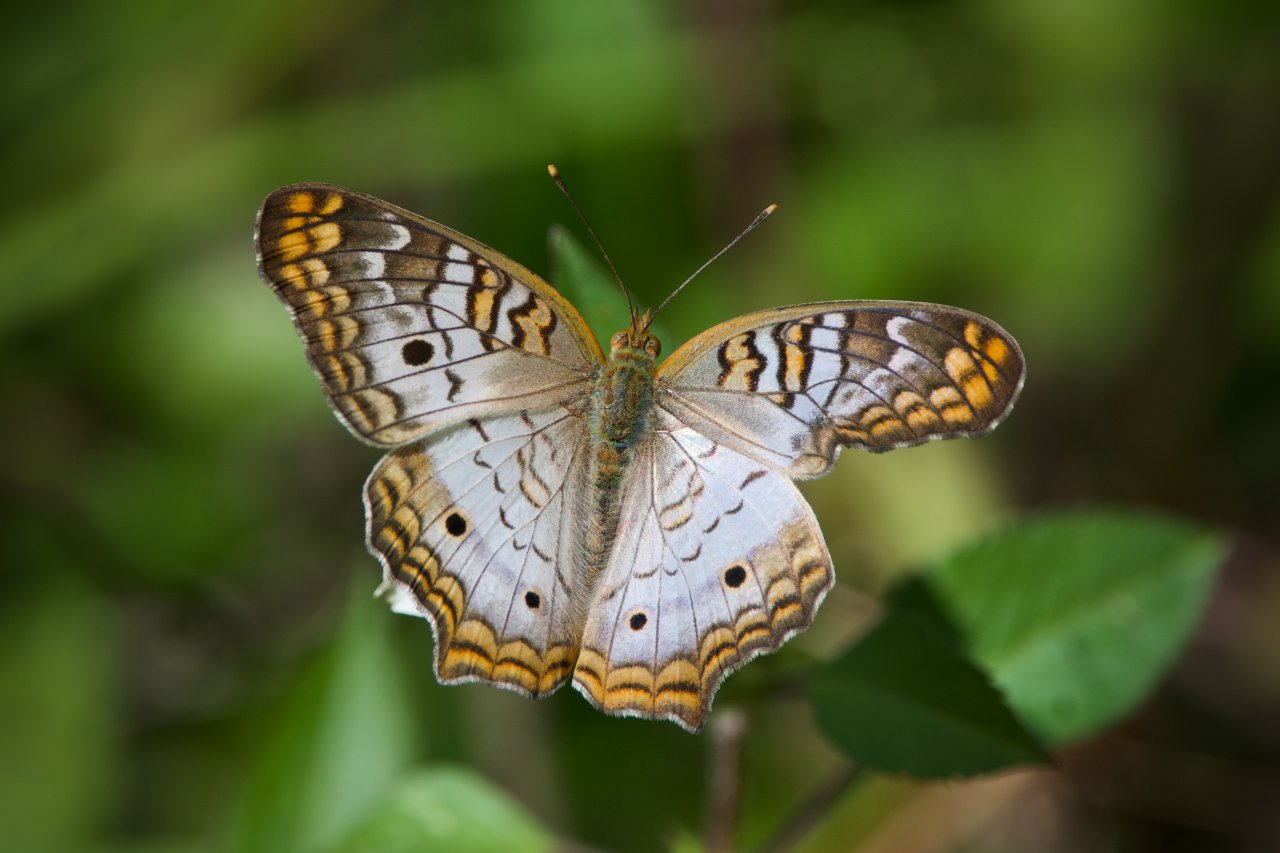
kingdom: Animalia
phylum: Arthropoda
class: Insecta
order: Lepidoptera
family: Nymphalidae
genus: Anartia
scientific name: Anartia jatrophae
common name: White Peacock
